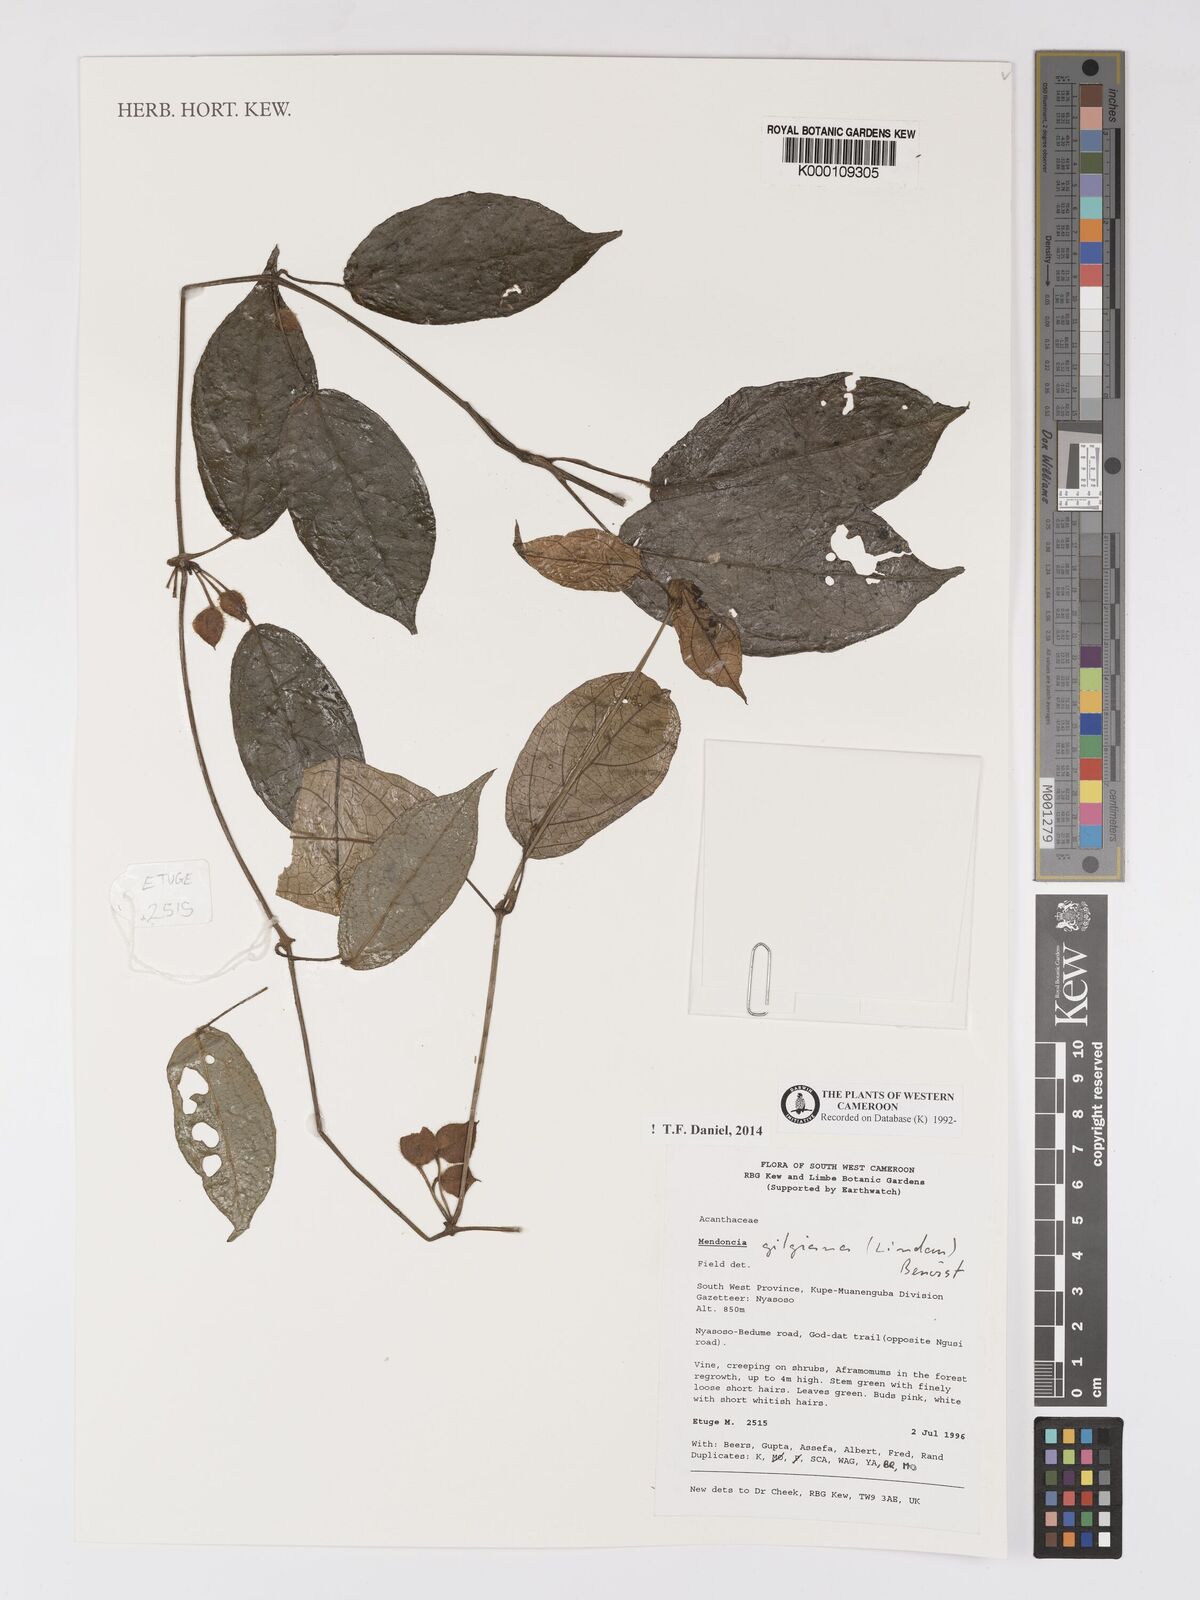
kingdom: Plantae
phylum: Tracheophyta
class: Magnoliopsida
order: Lamiales
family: Acanthaceae
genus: Mendoncia
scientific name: Mendoncia gilgiana
